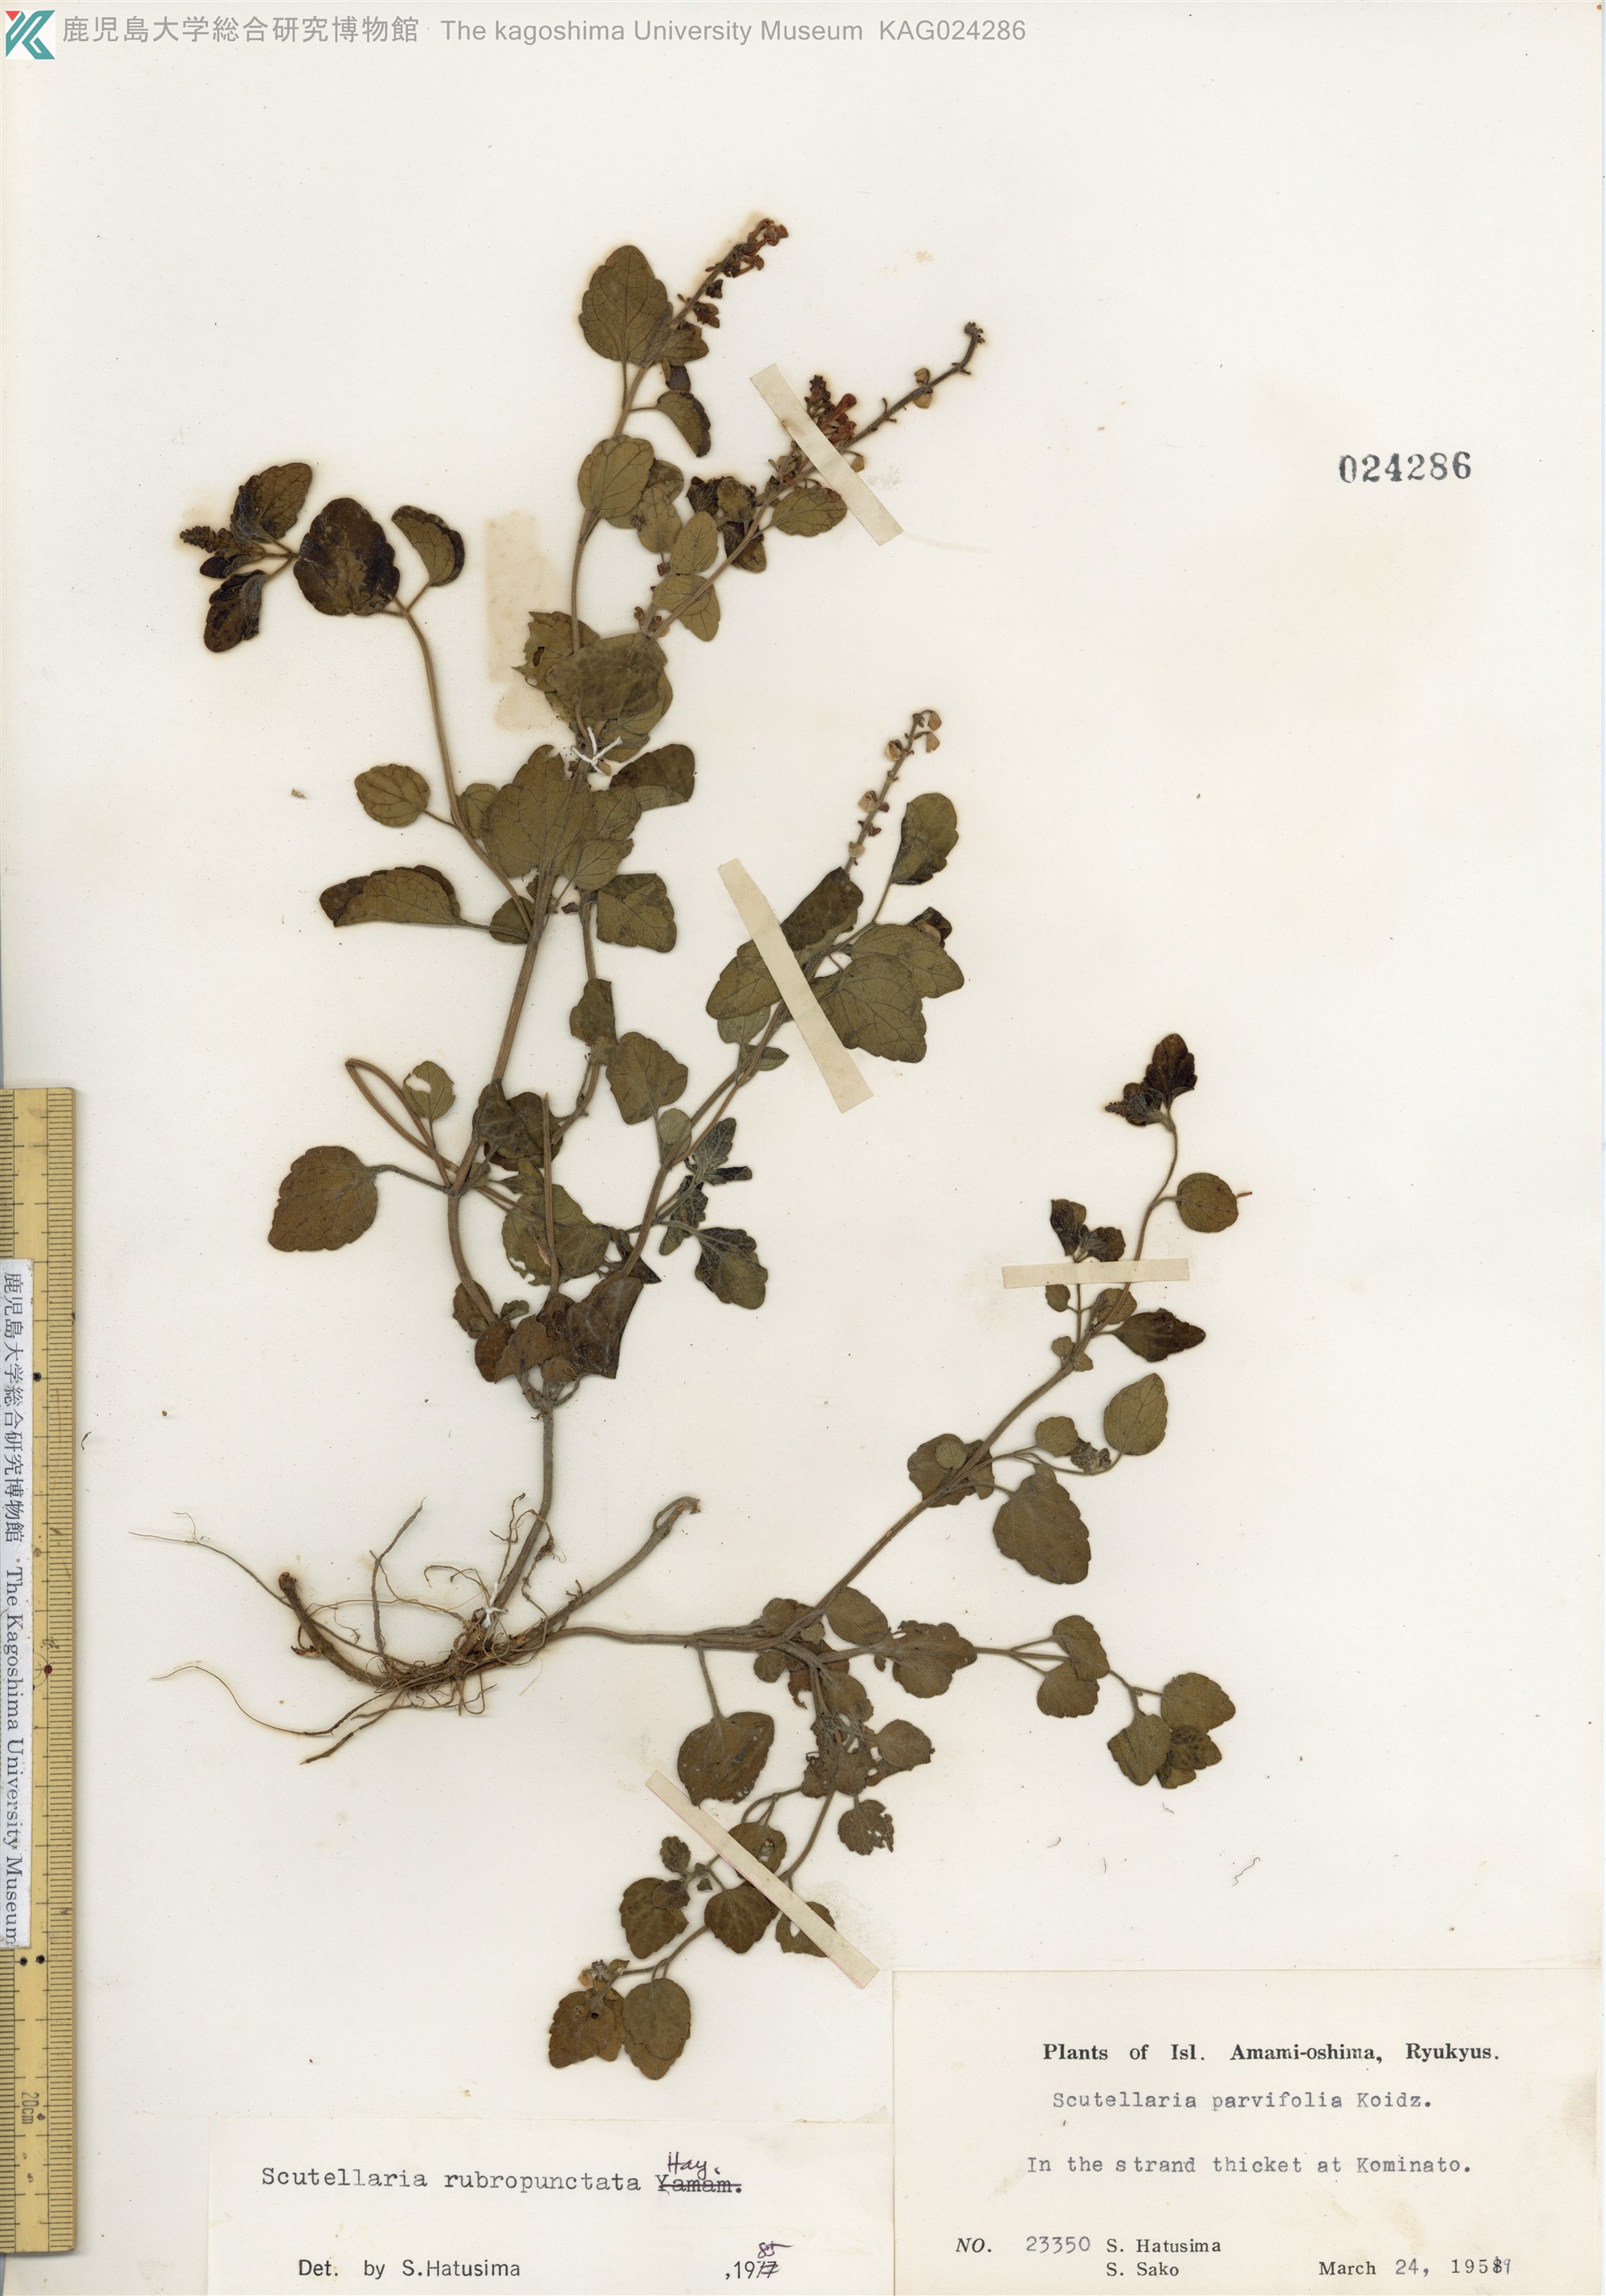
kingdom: Plantae
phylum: Tracheophyta
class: Magnoliopsida
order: Lamiales
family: Lamiaceae
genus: Scutellaria
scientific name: Scutellaria rubropunctata
